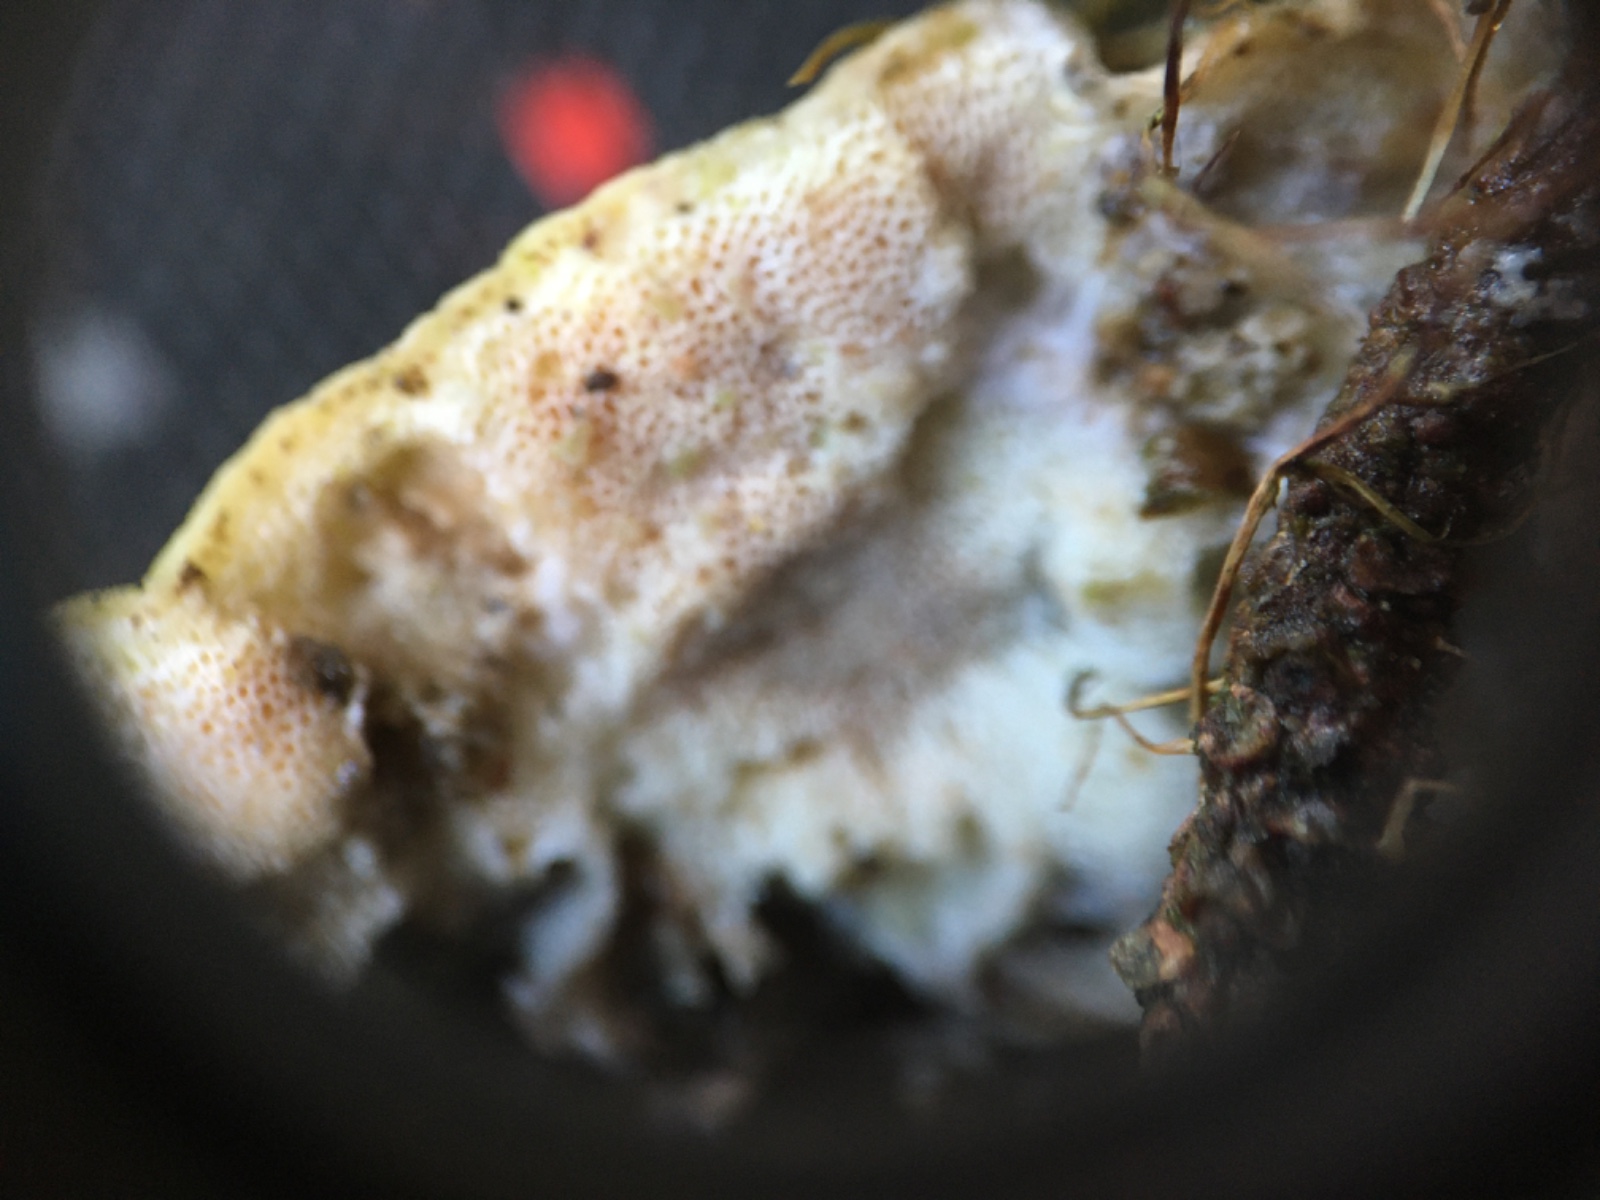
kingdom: Fungi
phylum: Basidiomycota
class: Agaricomycetes
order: Polyporales
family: Incrustoporiaceae
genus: Skeletocutis
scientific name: Skeletocutis carneogrisea
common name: rødgrå krystalporesvamp
